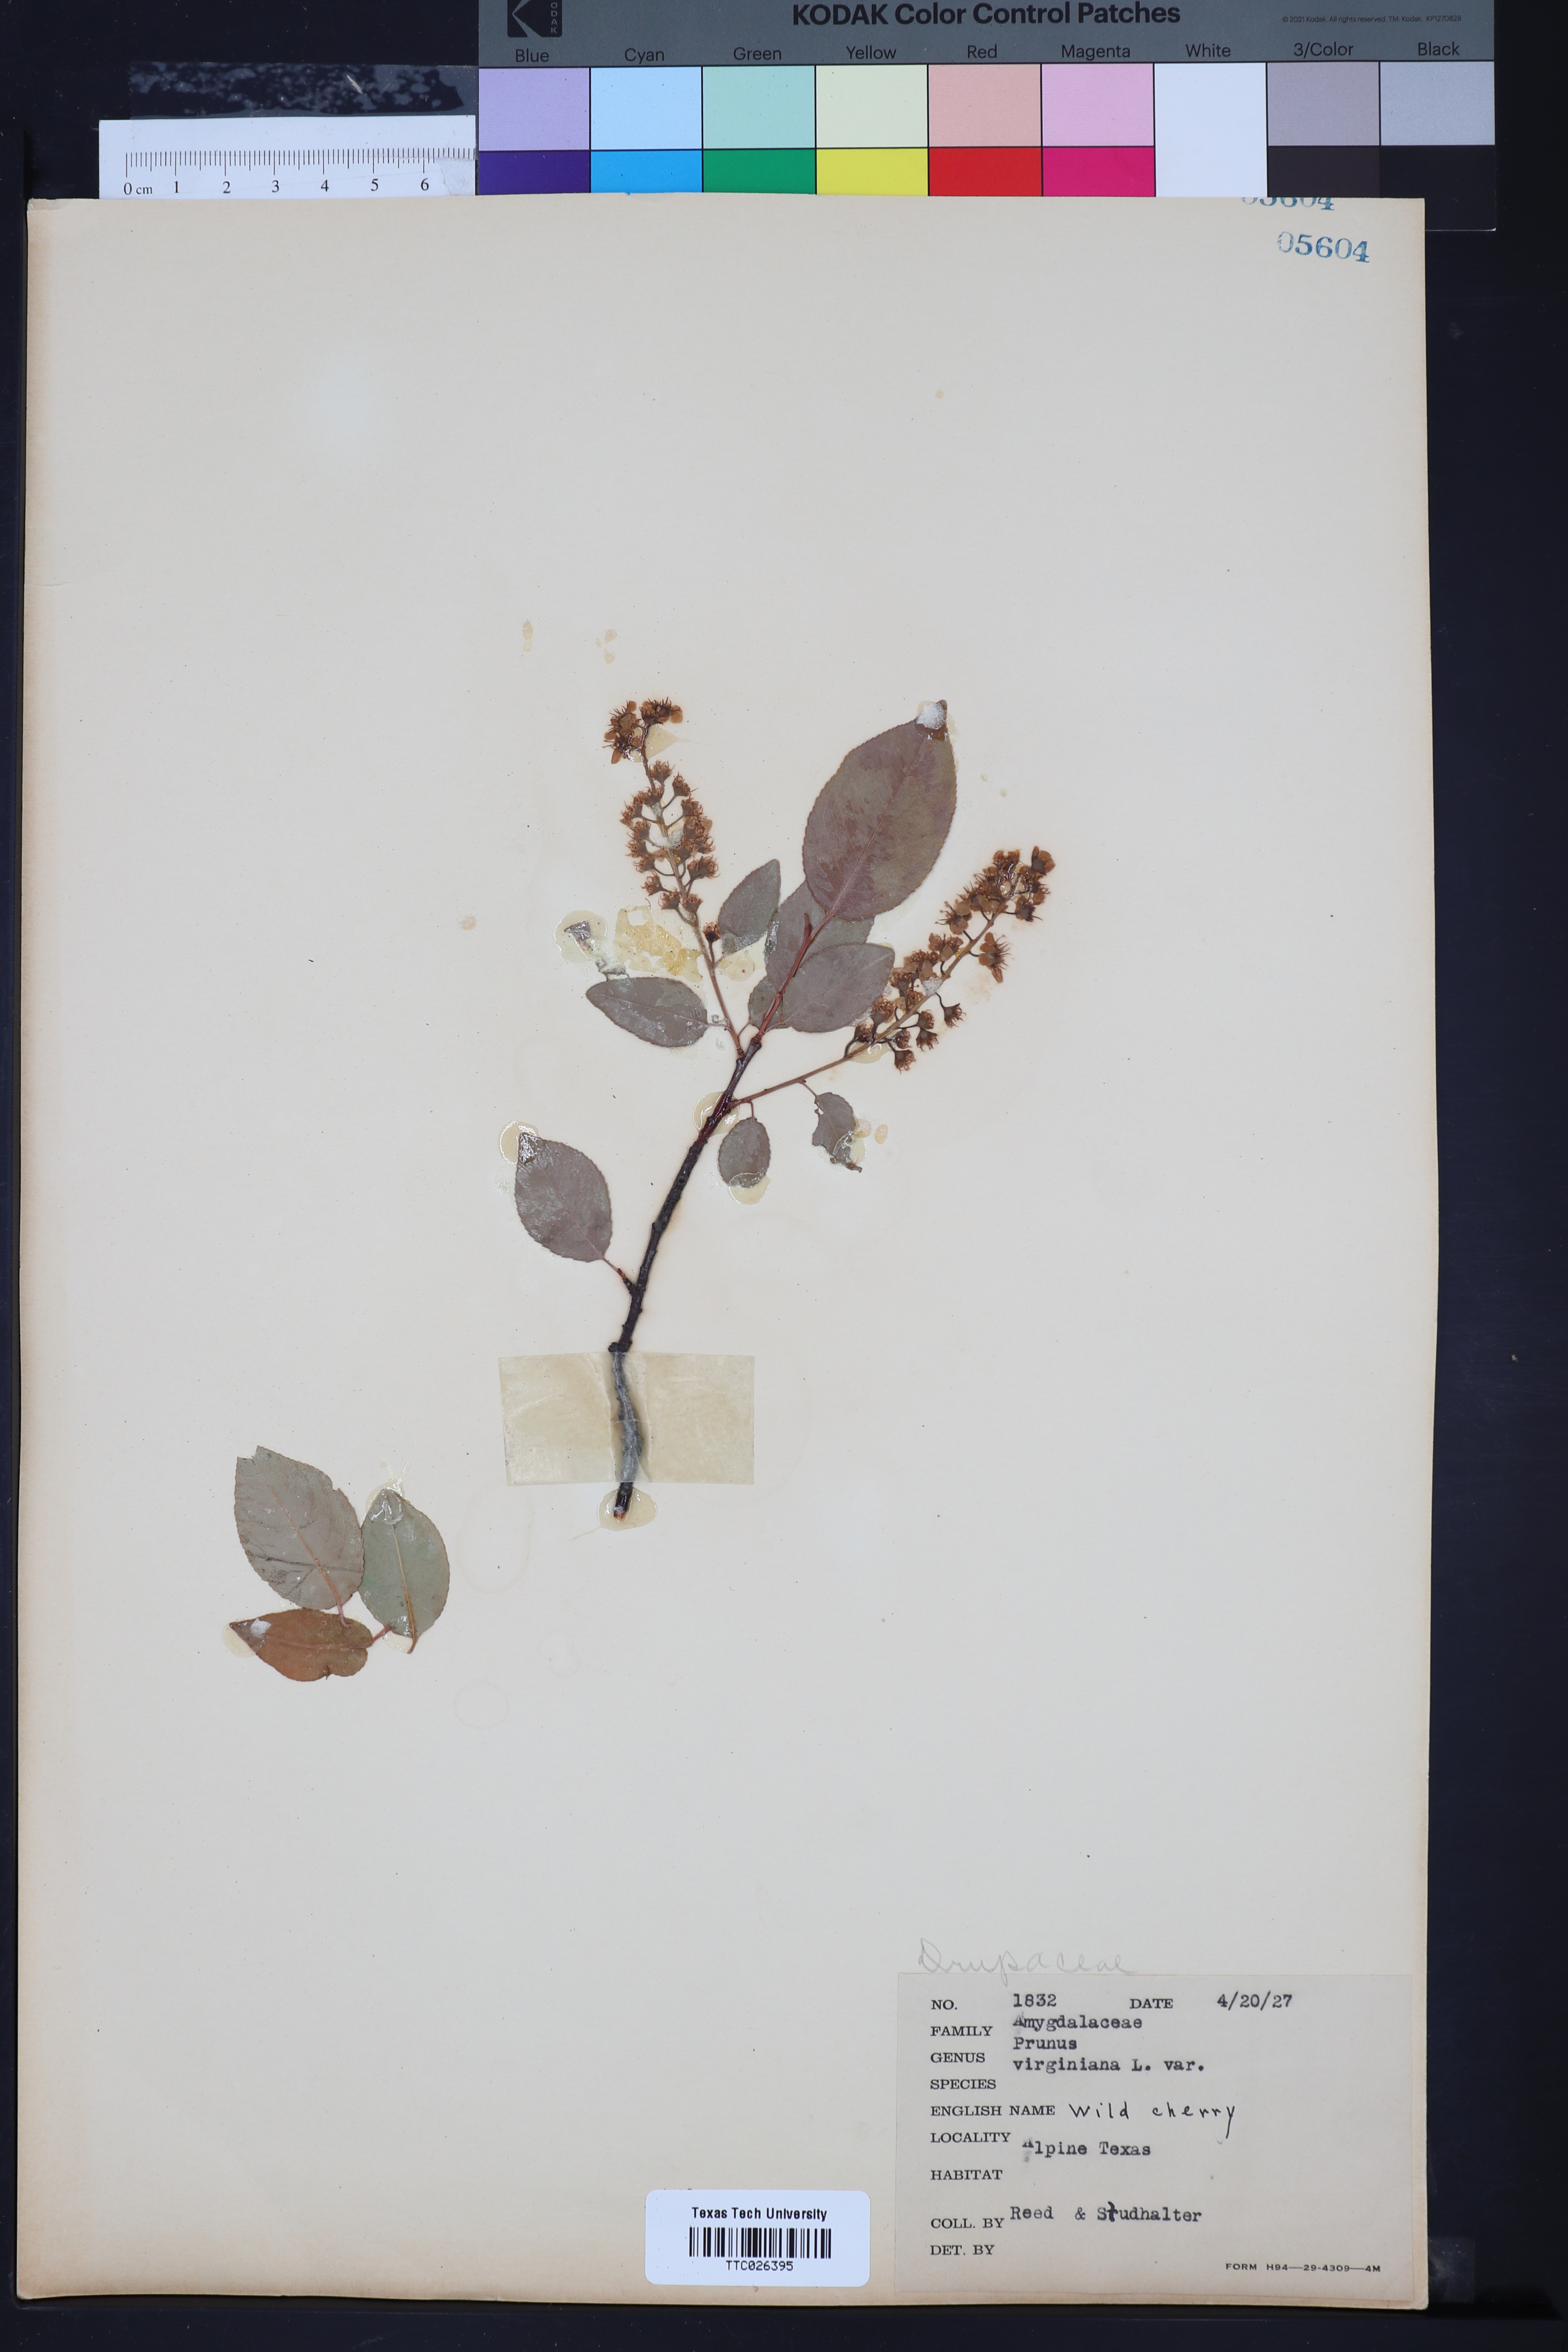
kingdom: Plantae
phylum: Tracheophyta
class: Magnoliopsida
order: Rosales
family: Rosaceae
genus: Prunus
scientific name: Prunus virginiana
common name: Chokecherry
